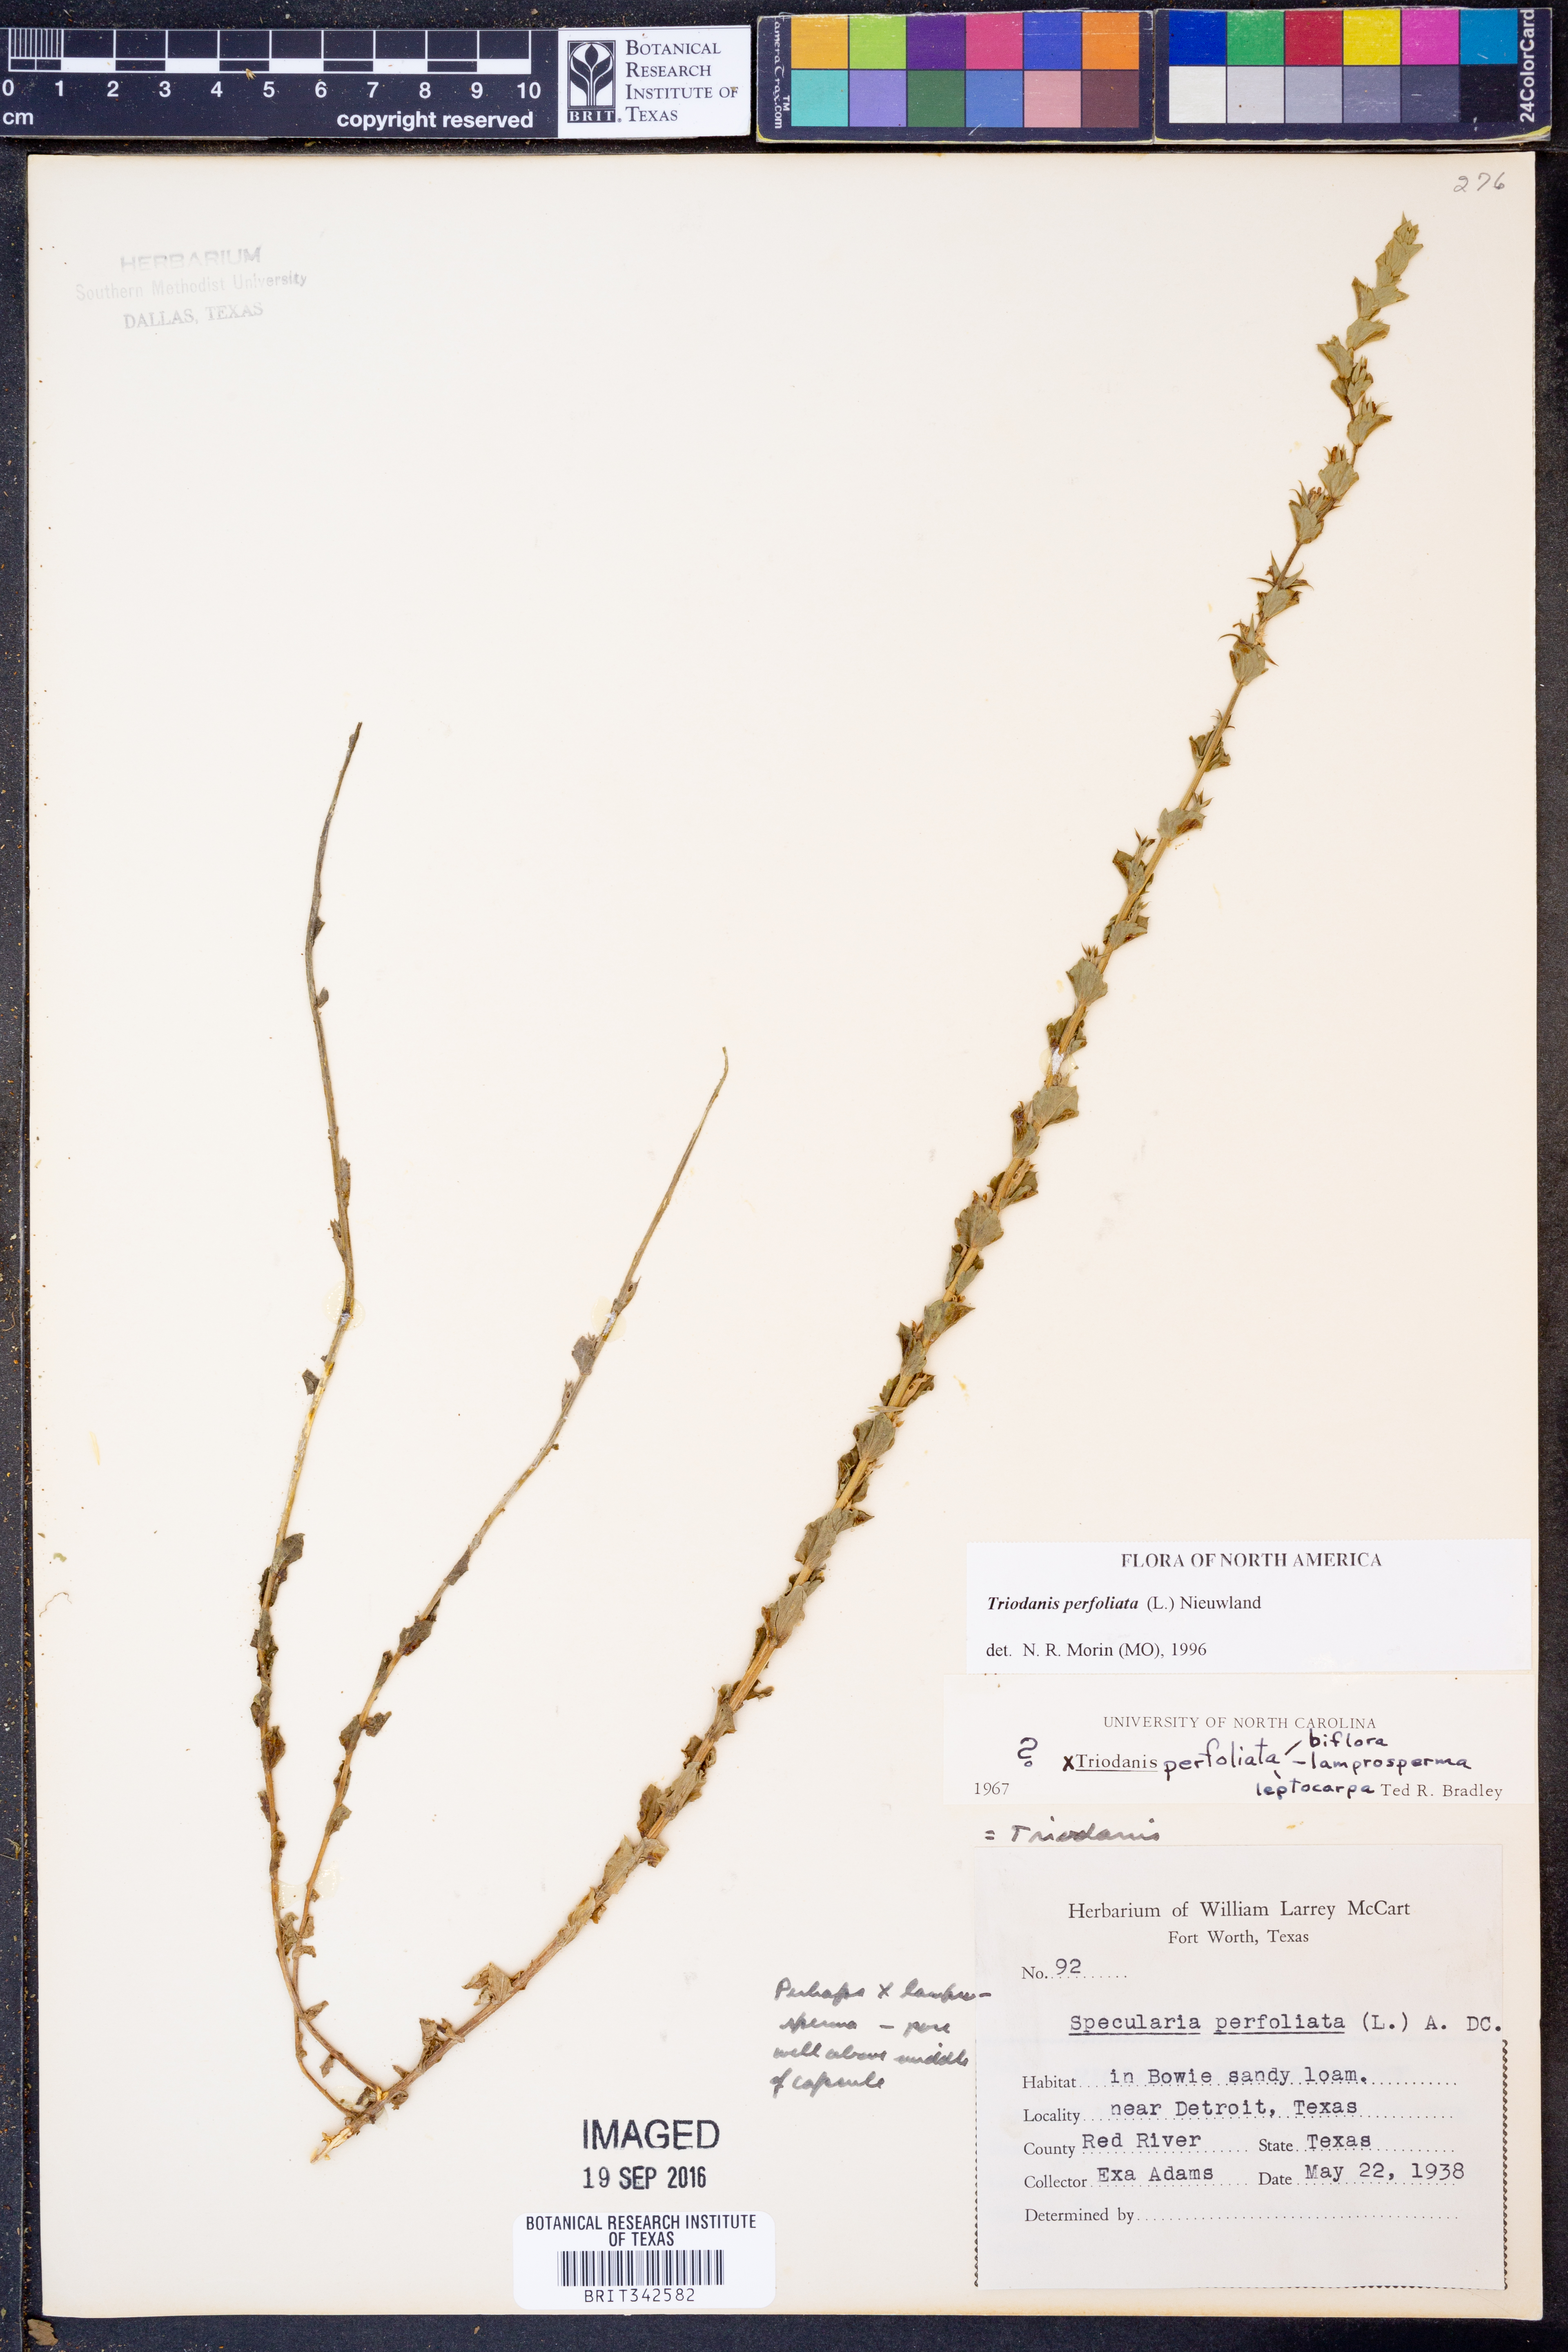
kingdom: Plantae
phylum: Tracheophyta
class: Magnoliopsida
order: Asterales
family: Campanulaceae
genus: Triodanis
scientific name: Triodanis perfoliata
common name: Clasping venus' looking-glass
